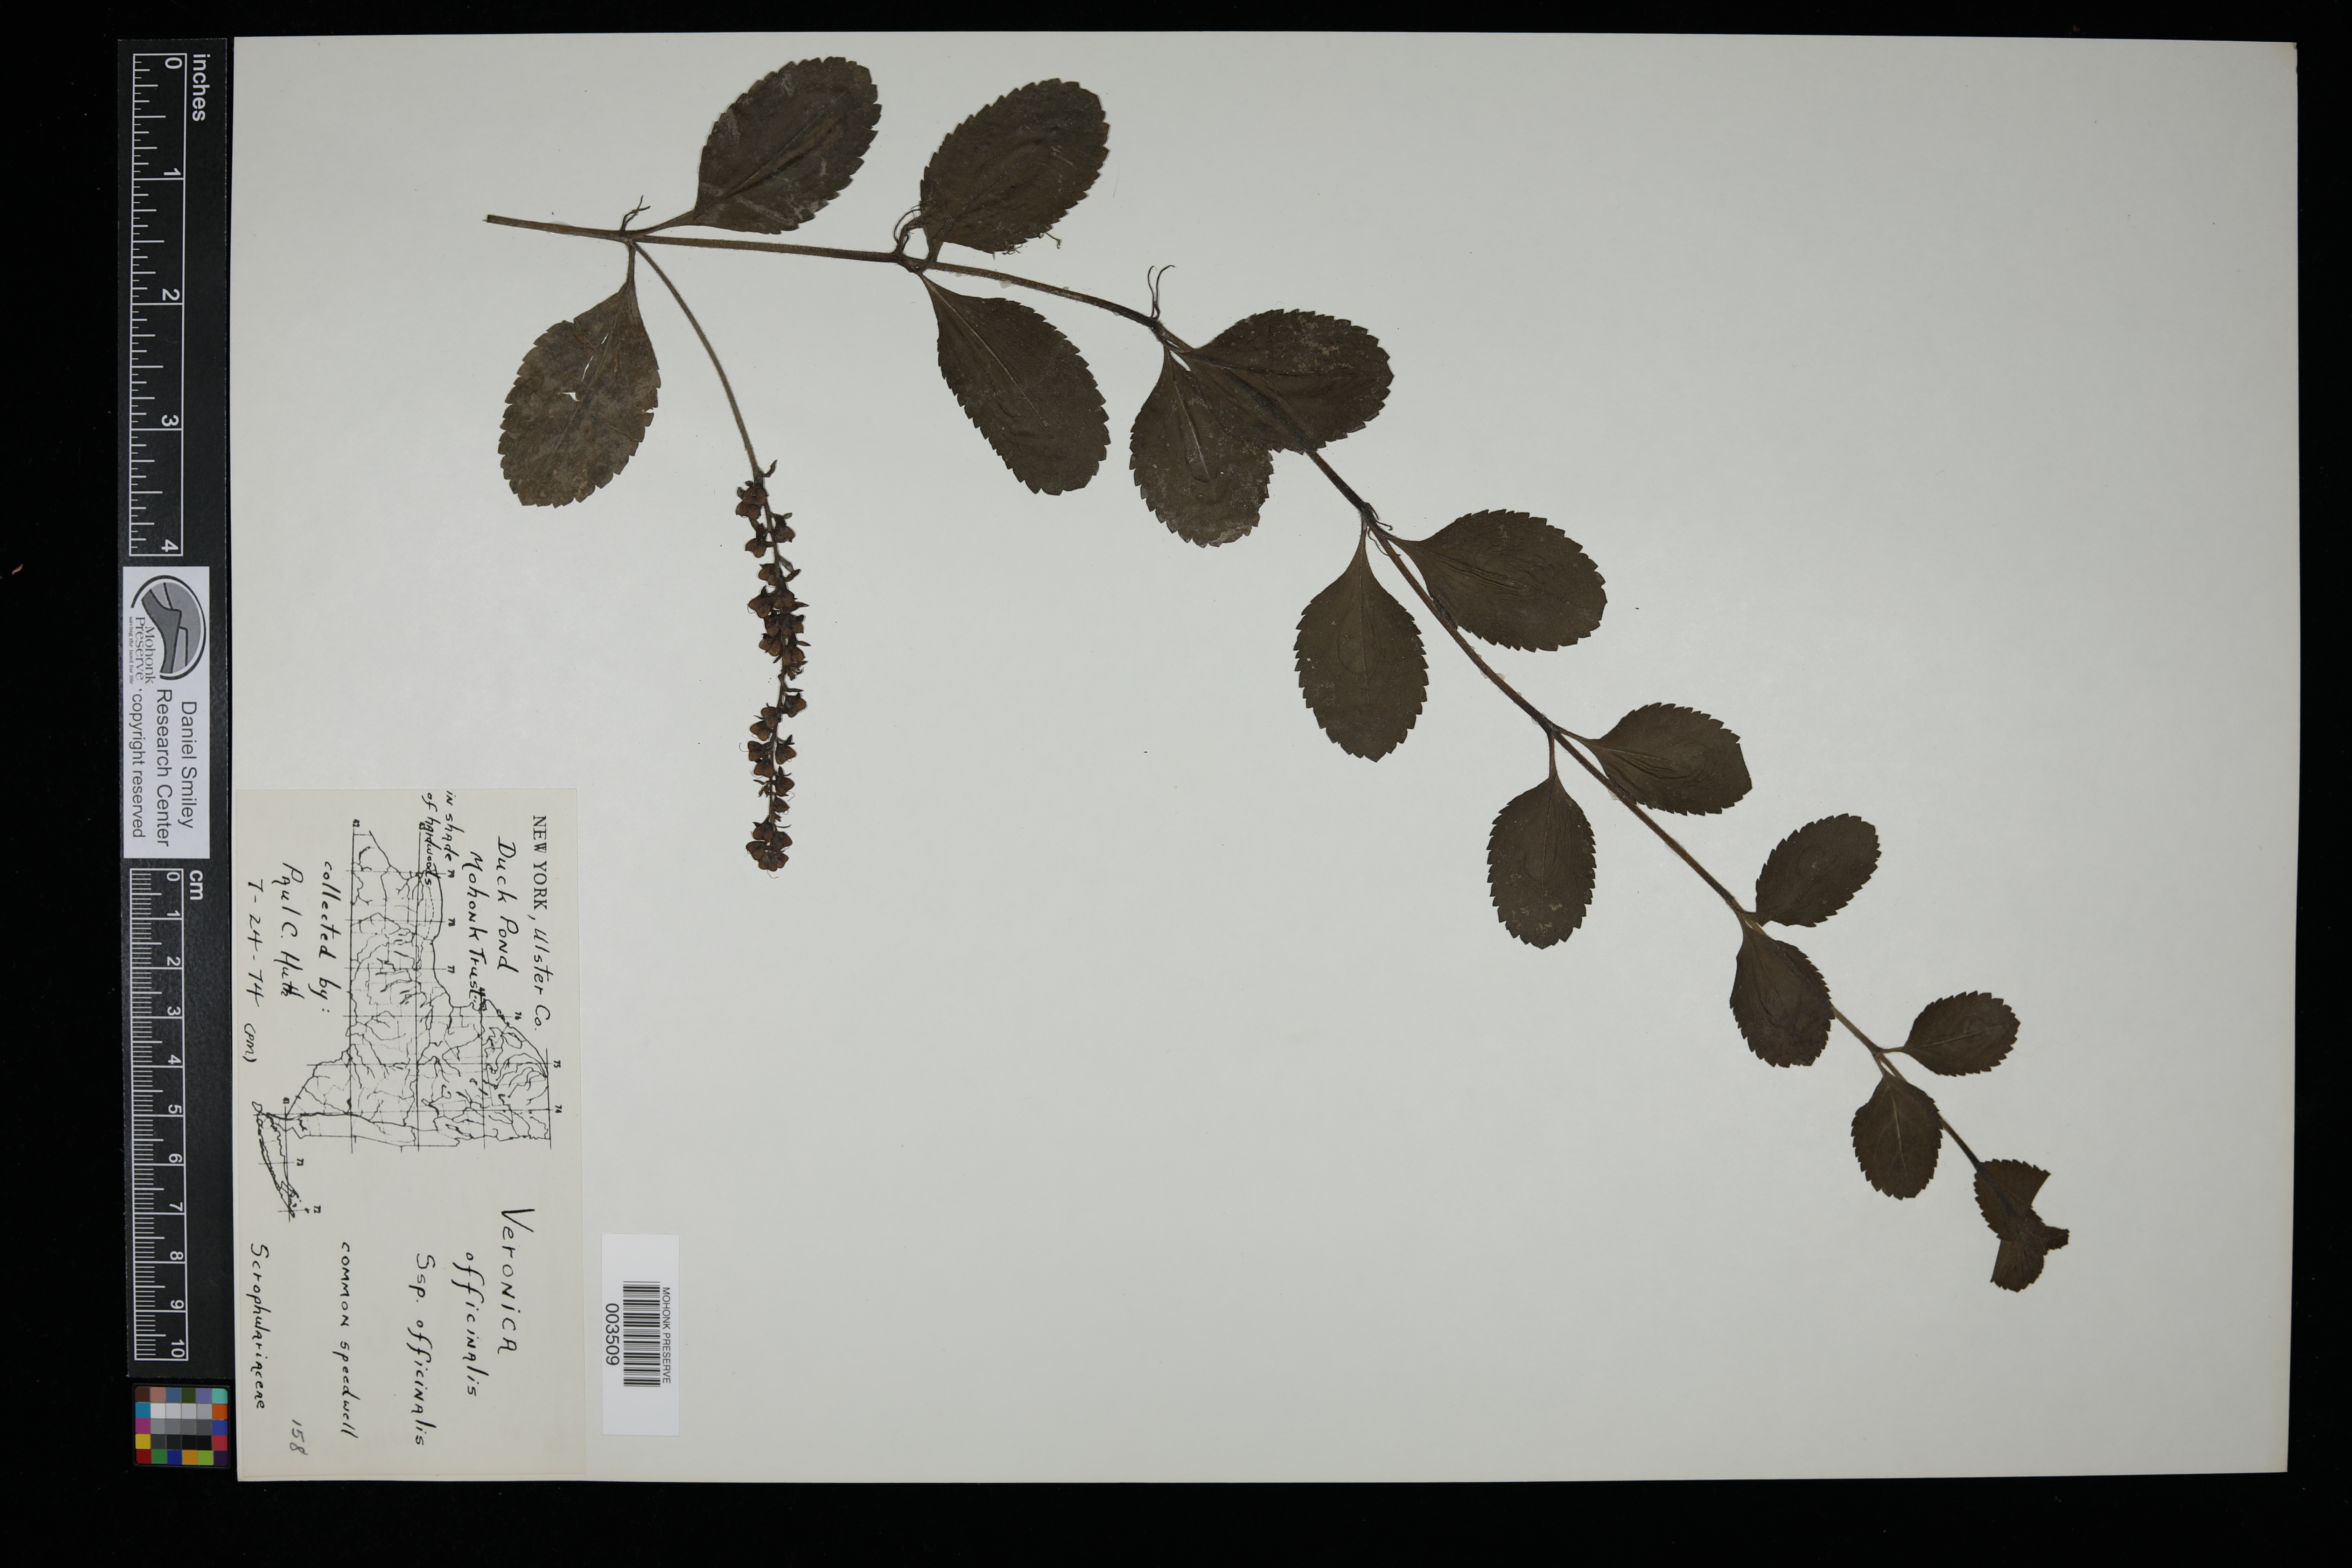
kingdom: Plantae
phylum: Tracheophyta
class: Magnoliopsida
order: Lamiales
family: Plantaginaceae
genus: Veronica
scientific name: Veronica officinalis
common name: Common speedwell
